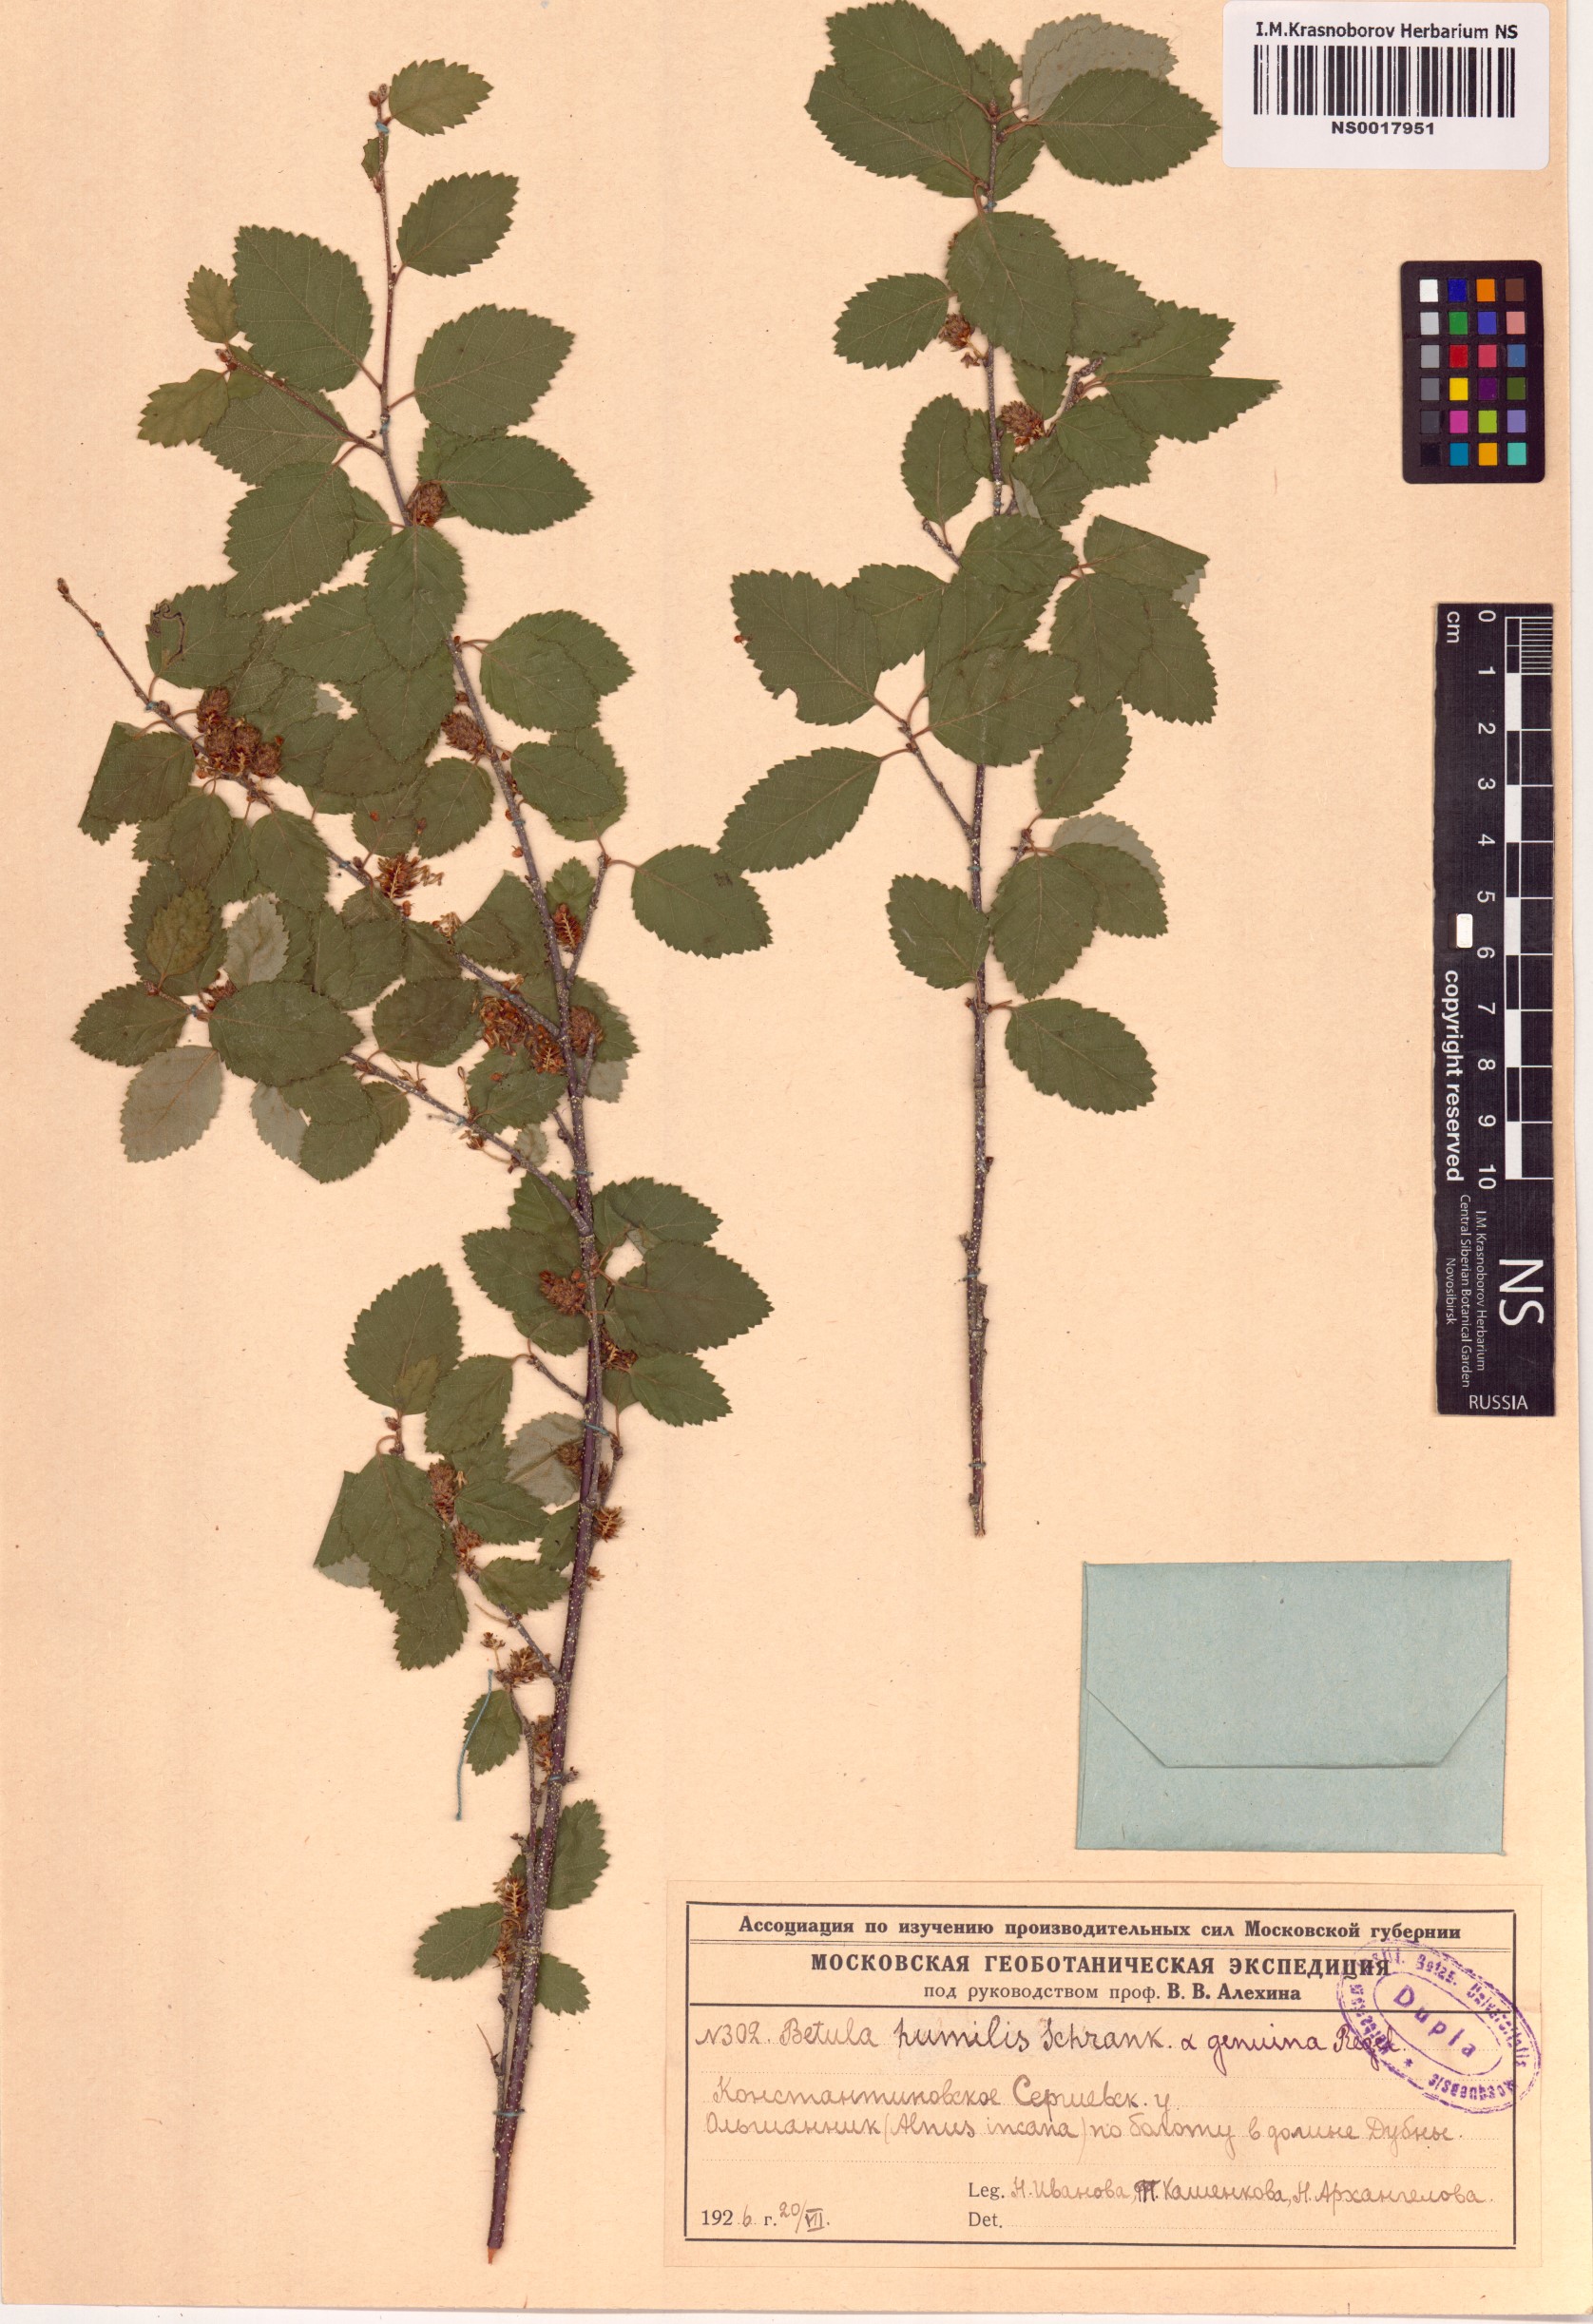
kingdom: Plantae
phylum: Tracheophyta
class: Magnoliopsida
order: Fagales
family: Betulaceae
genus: Betula
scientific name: Betula humilis
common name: Shrubby birch
